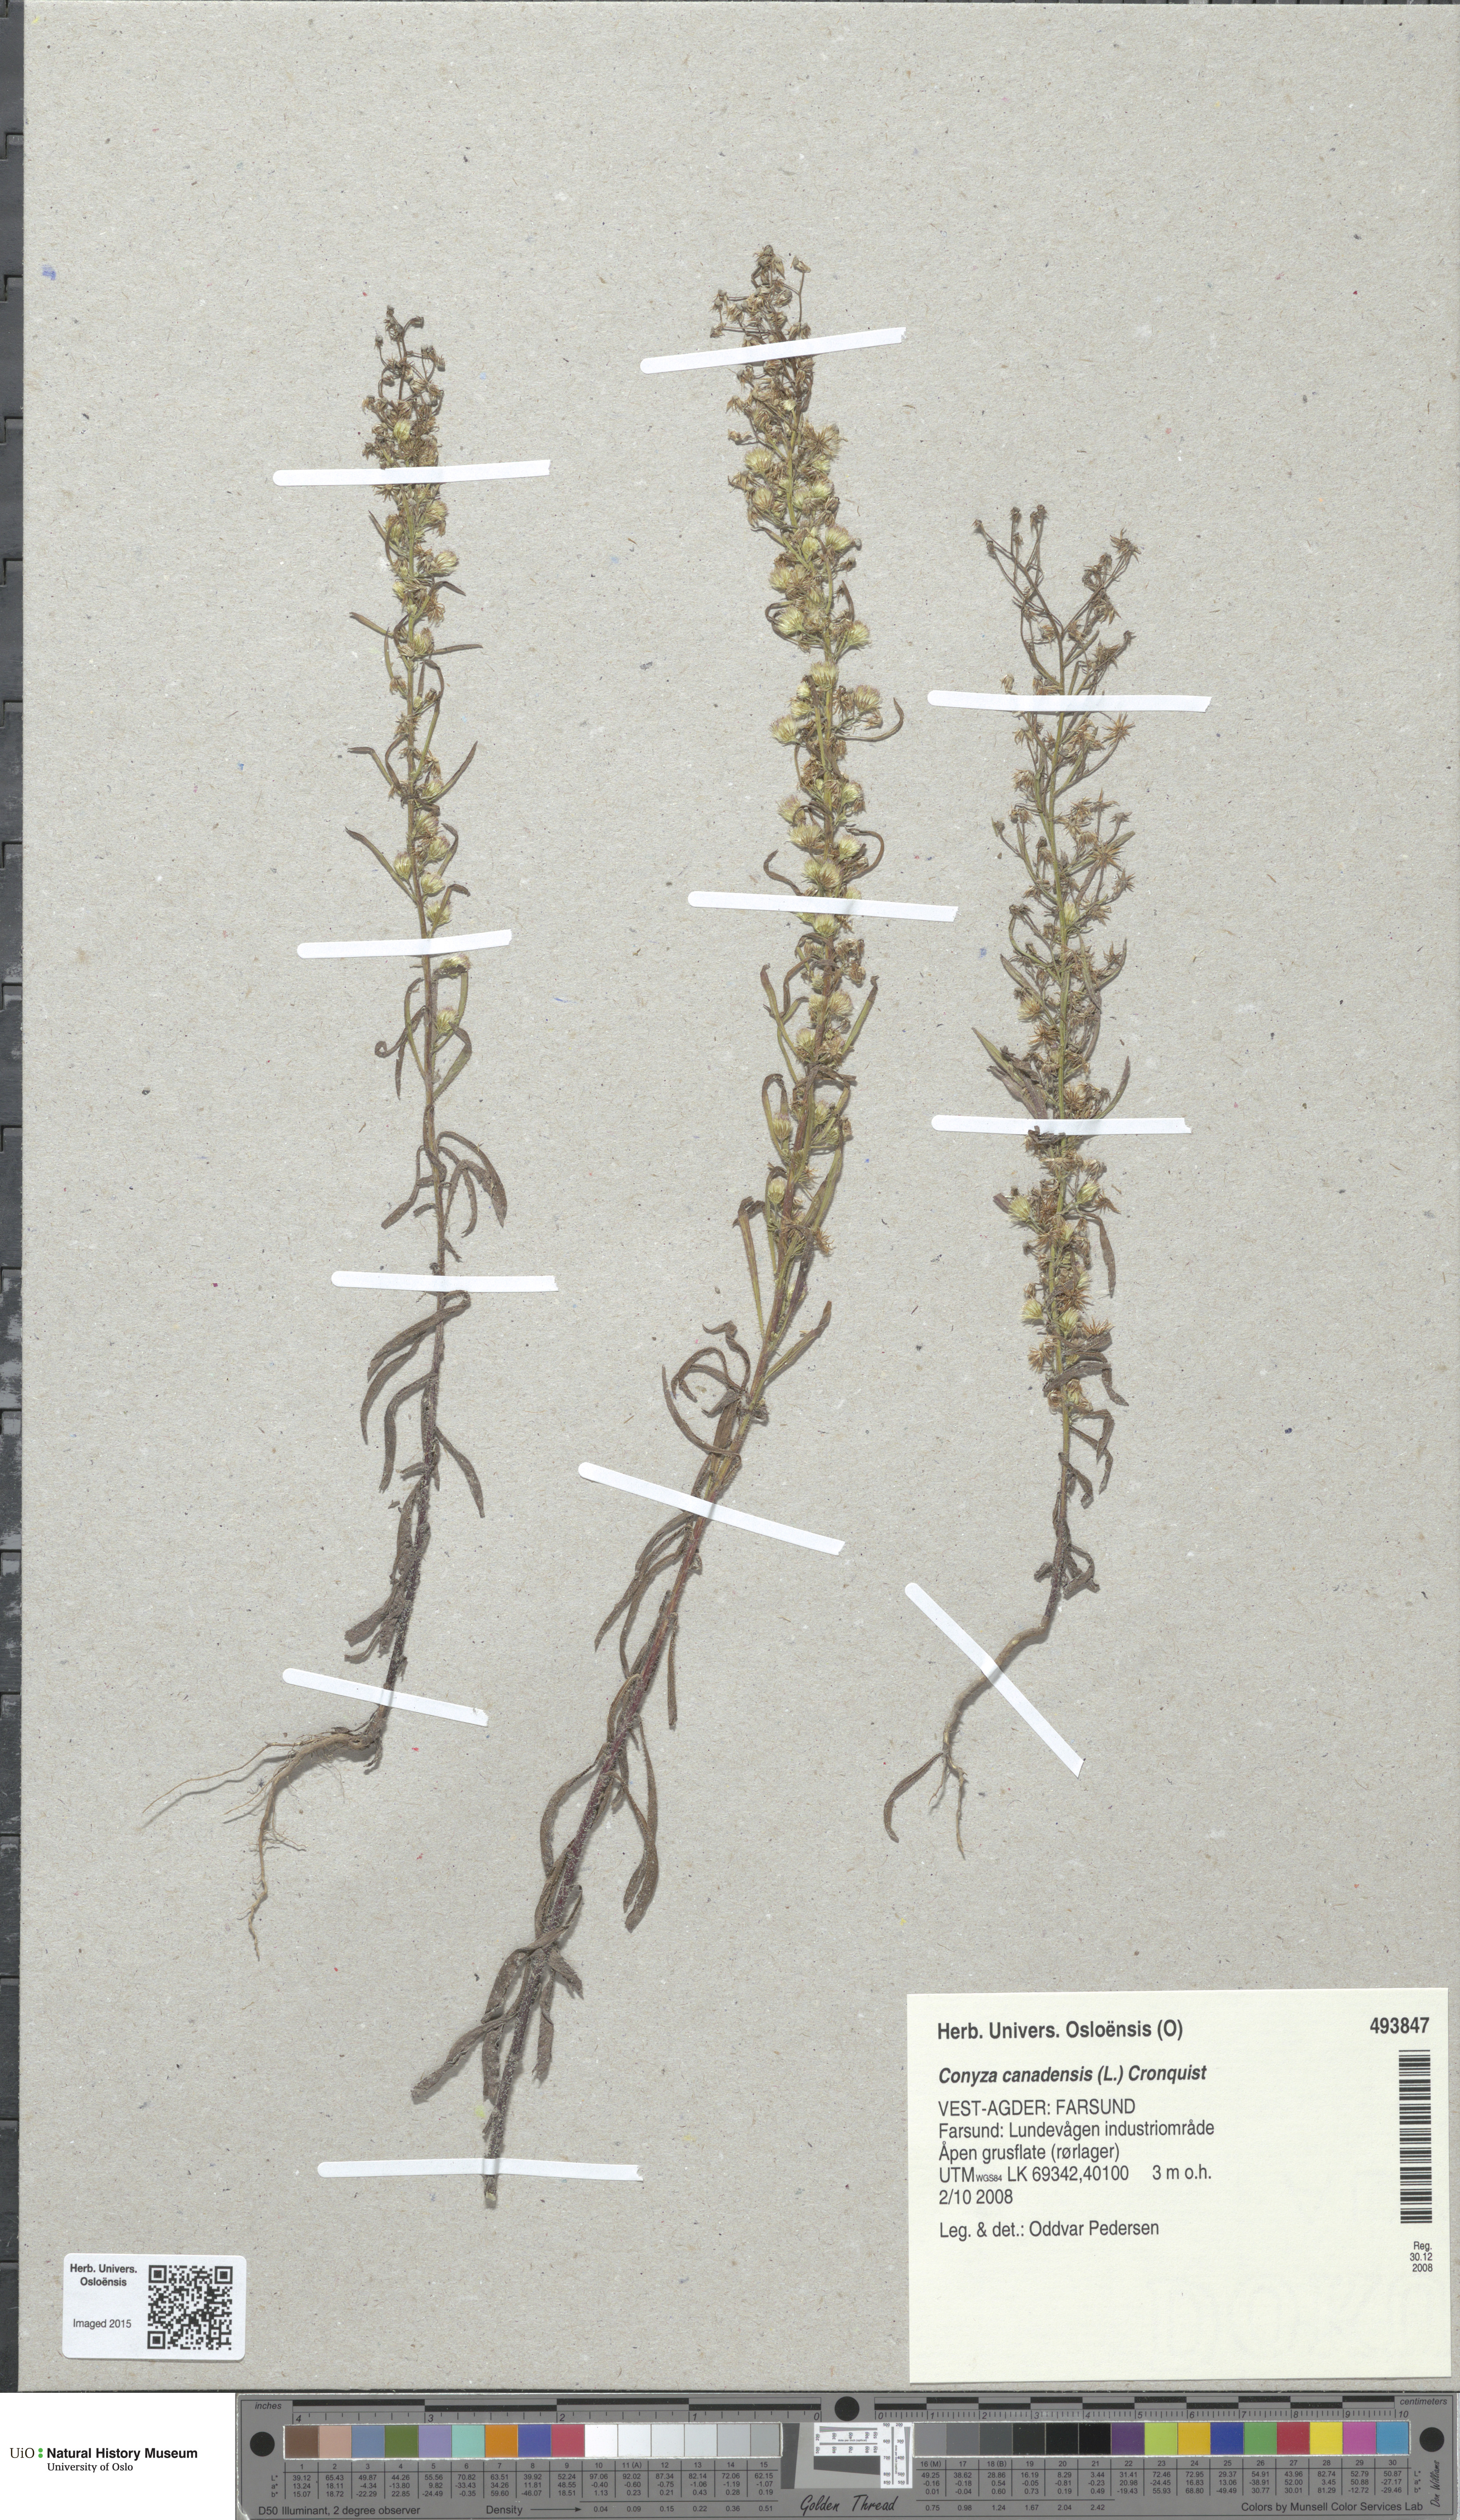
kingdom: Plantae
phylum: Tracheophyta
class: Magnoliopsida
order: Asterales
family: Asteraceae
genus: Erigeron
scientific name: Erigeron canadensis
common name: Canadian fleabane
